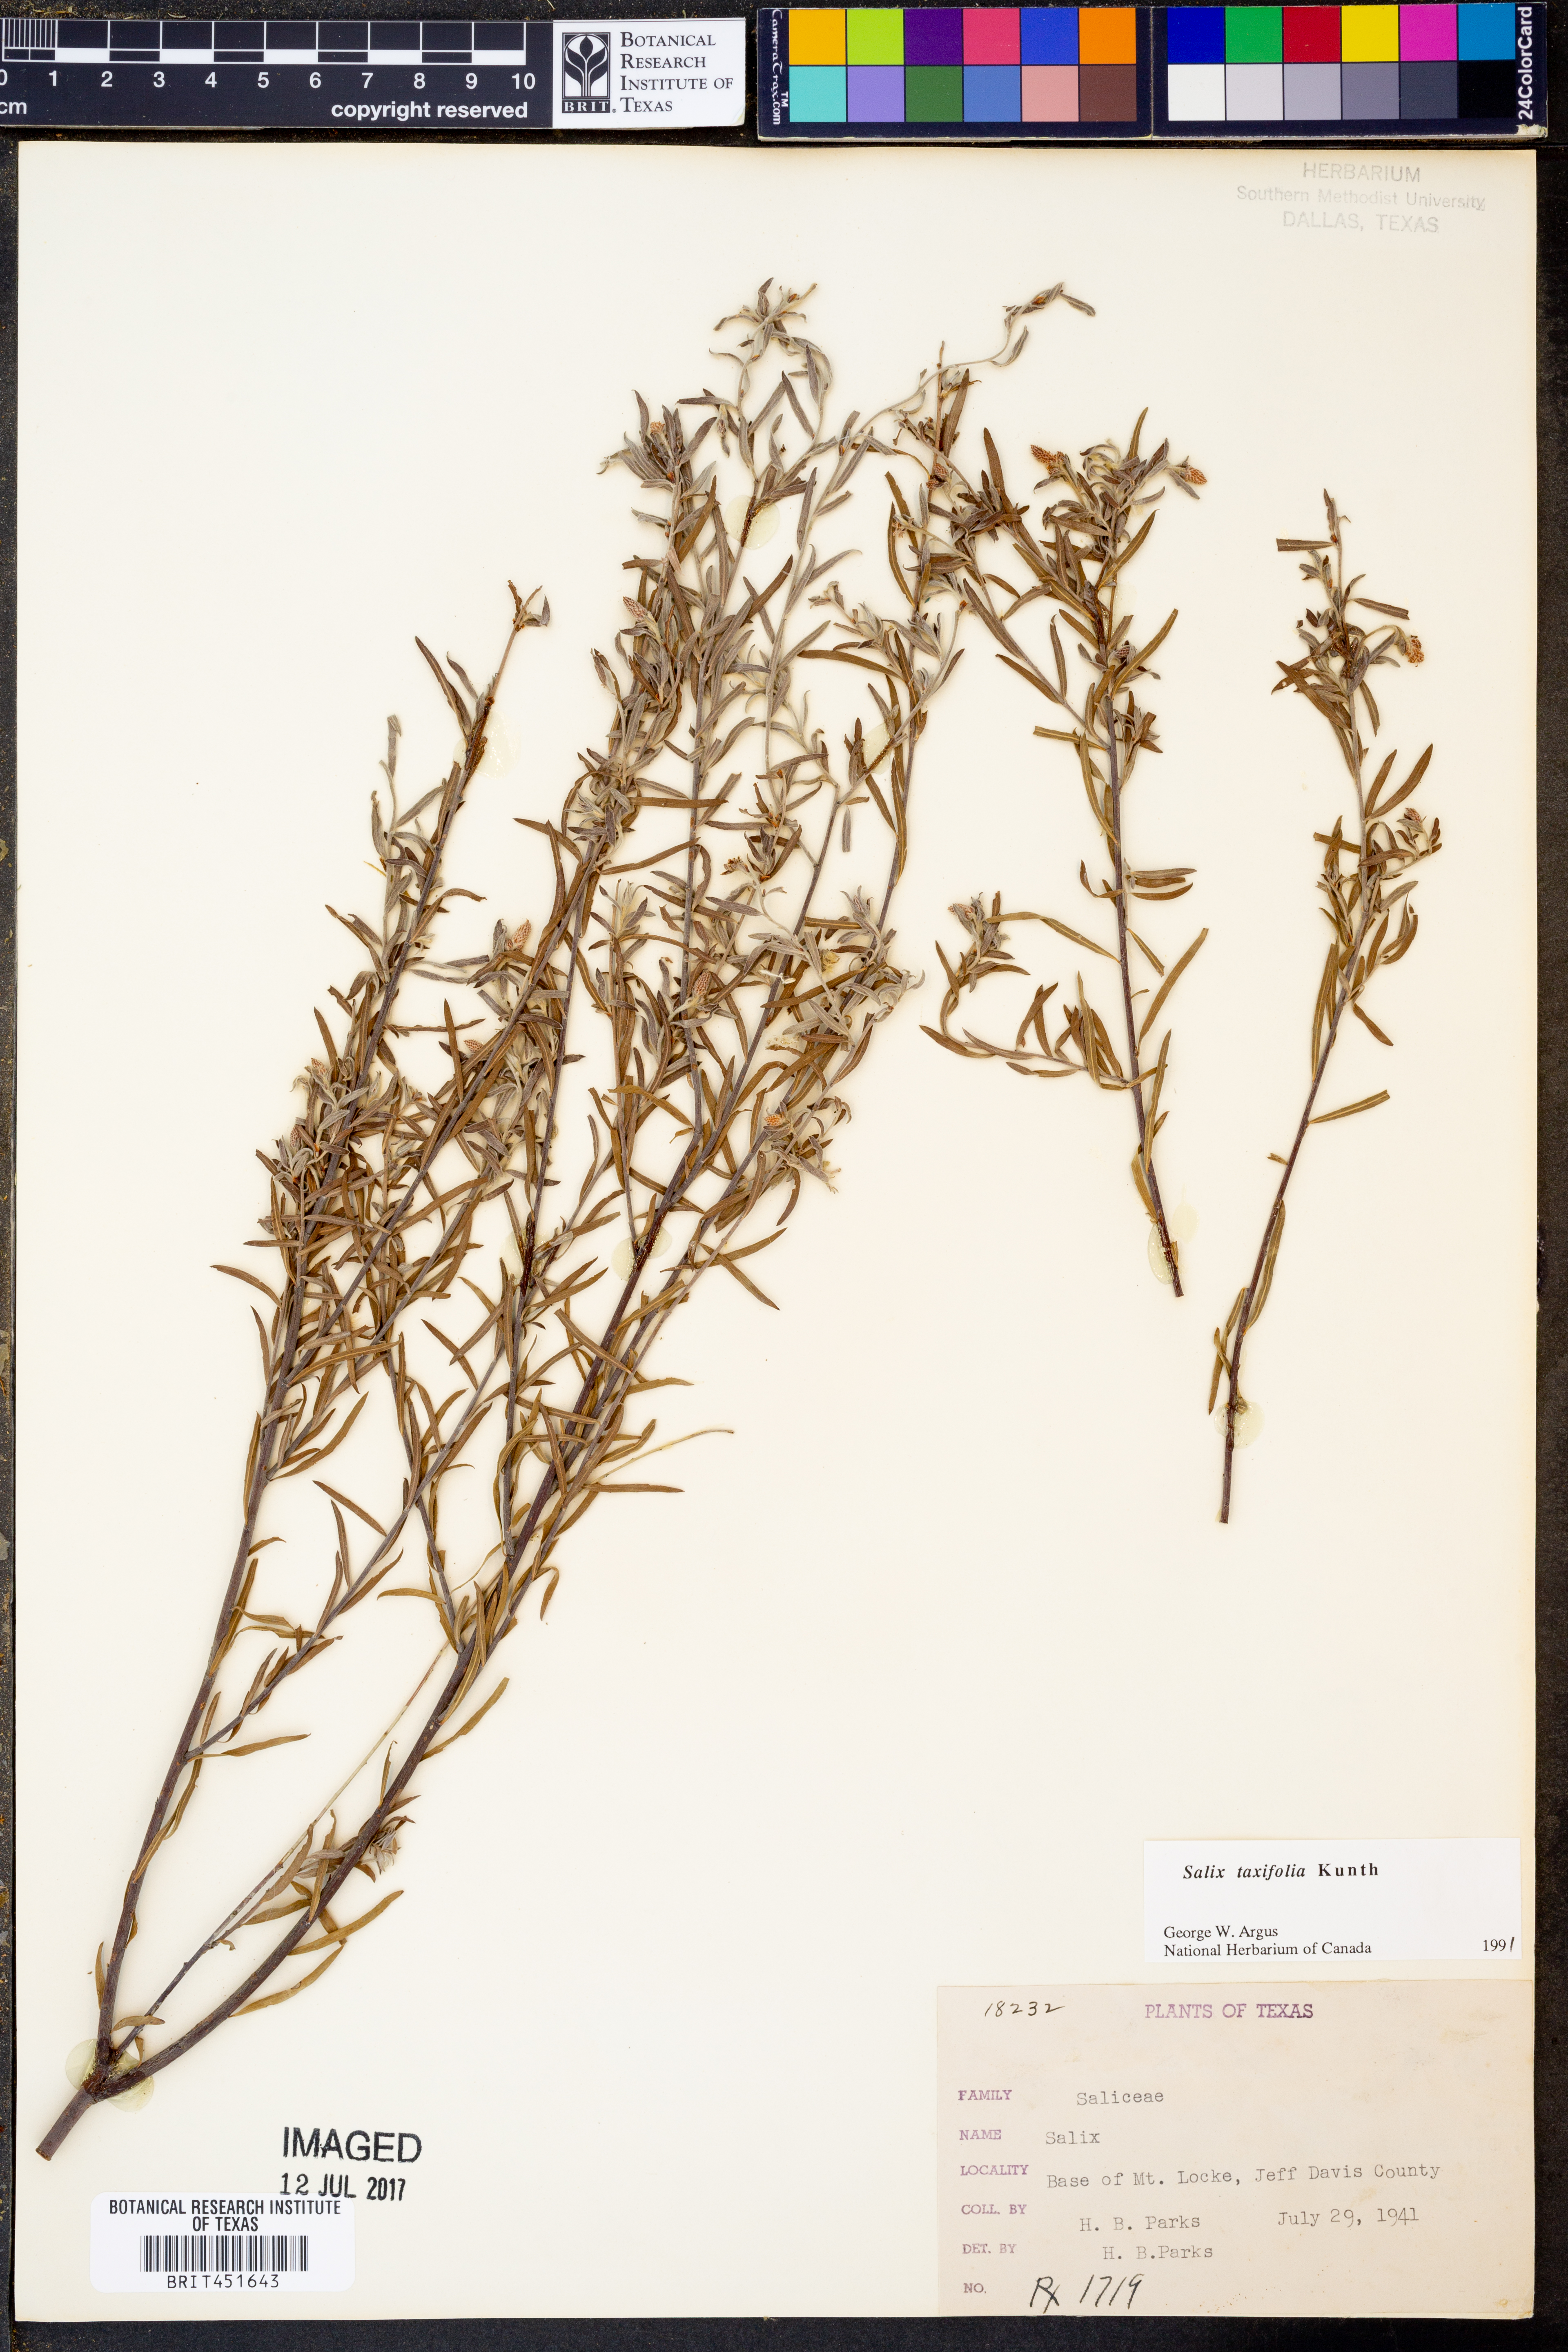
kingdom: Plantae
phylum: Tracheophyta
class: Magnoliopsida
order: Malpighiales
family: Salicaceae
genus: Salix
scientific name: Salix taxifolia
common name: Yew-leaf willow
